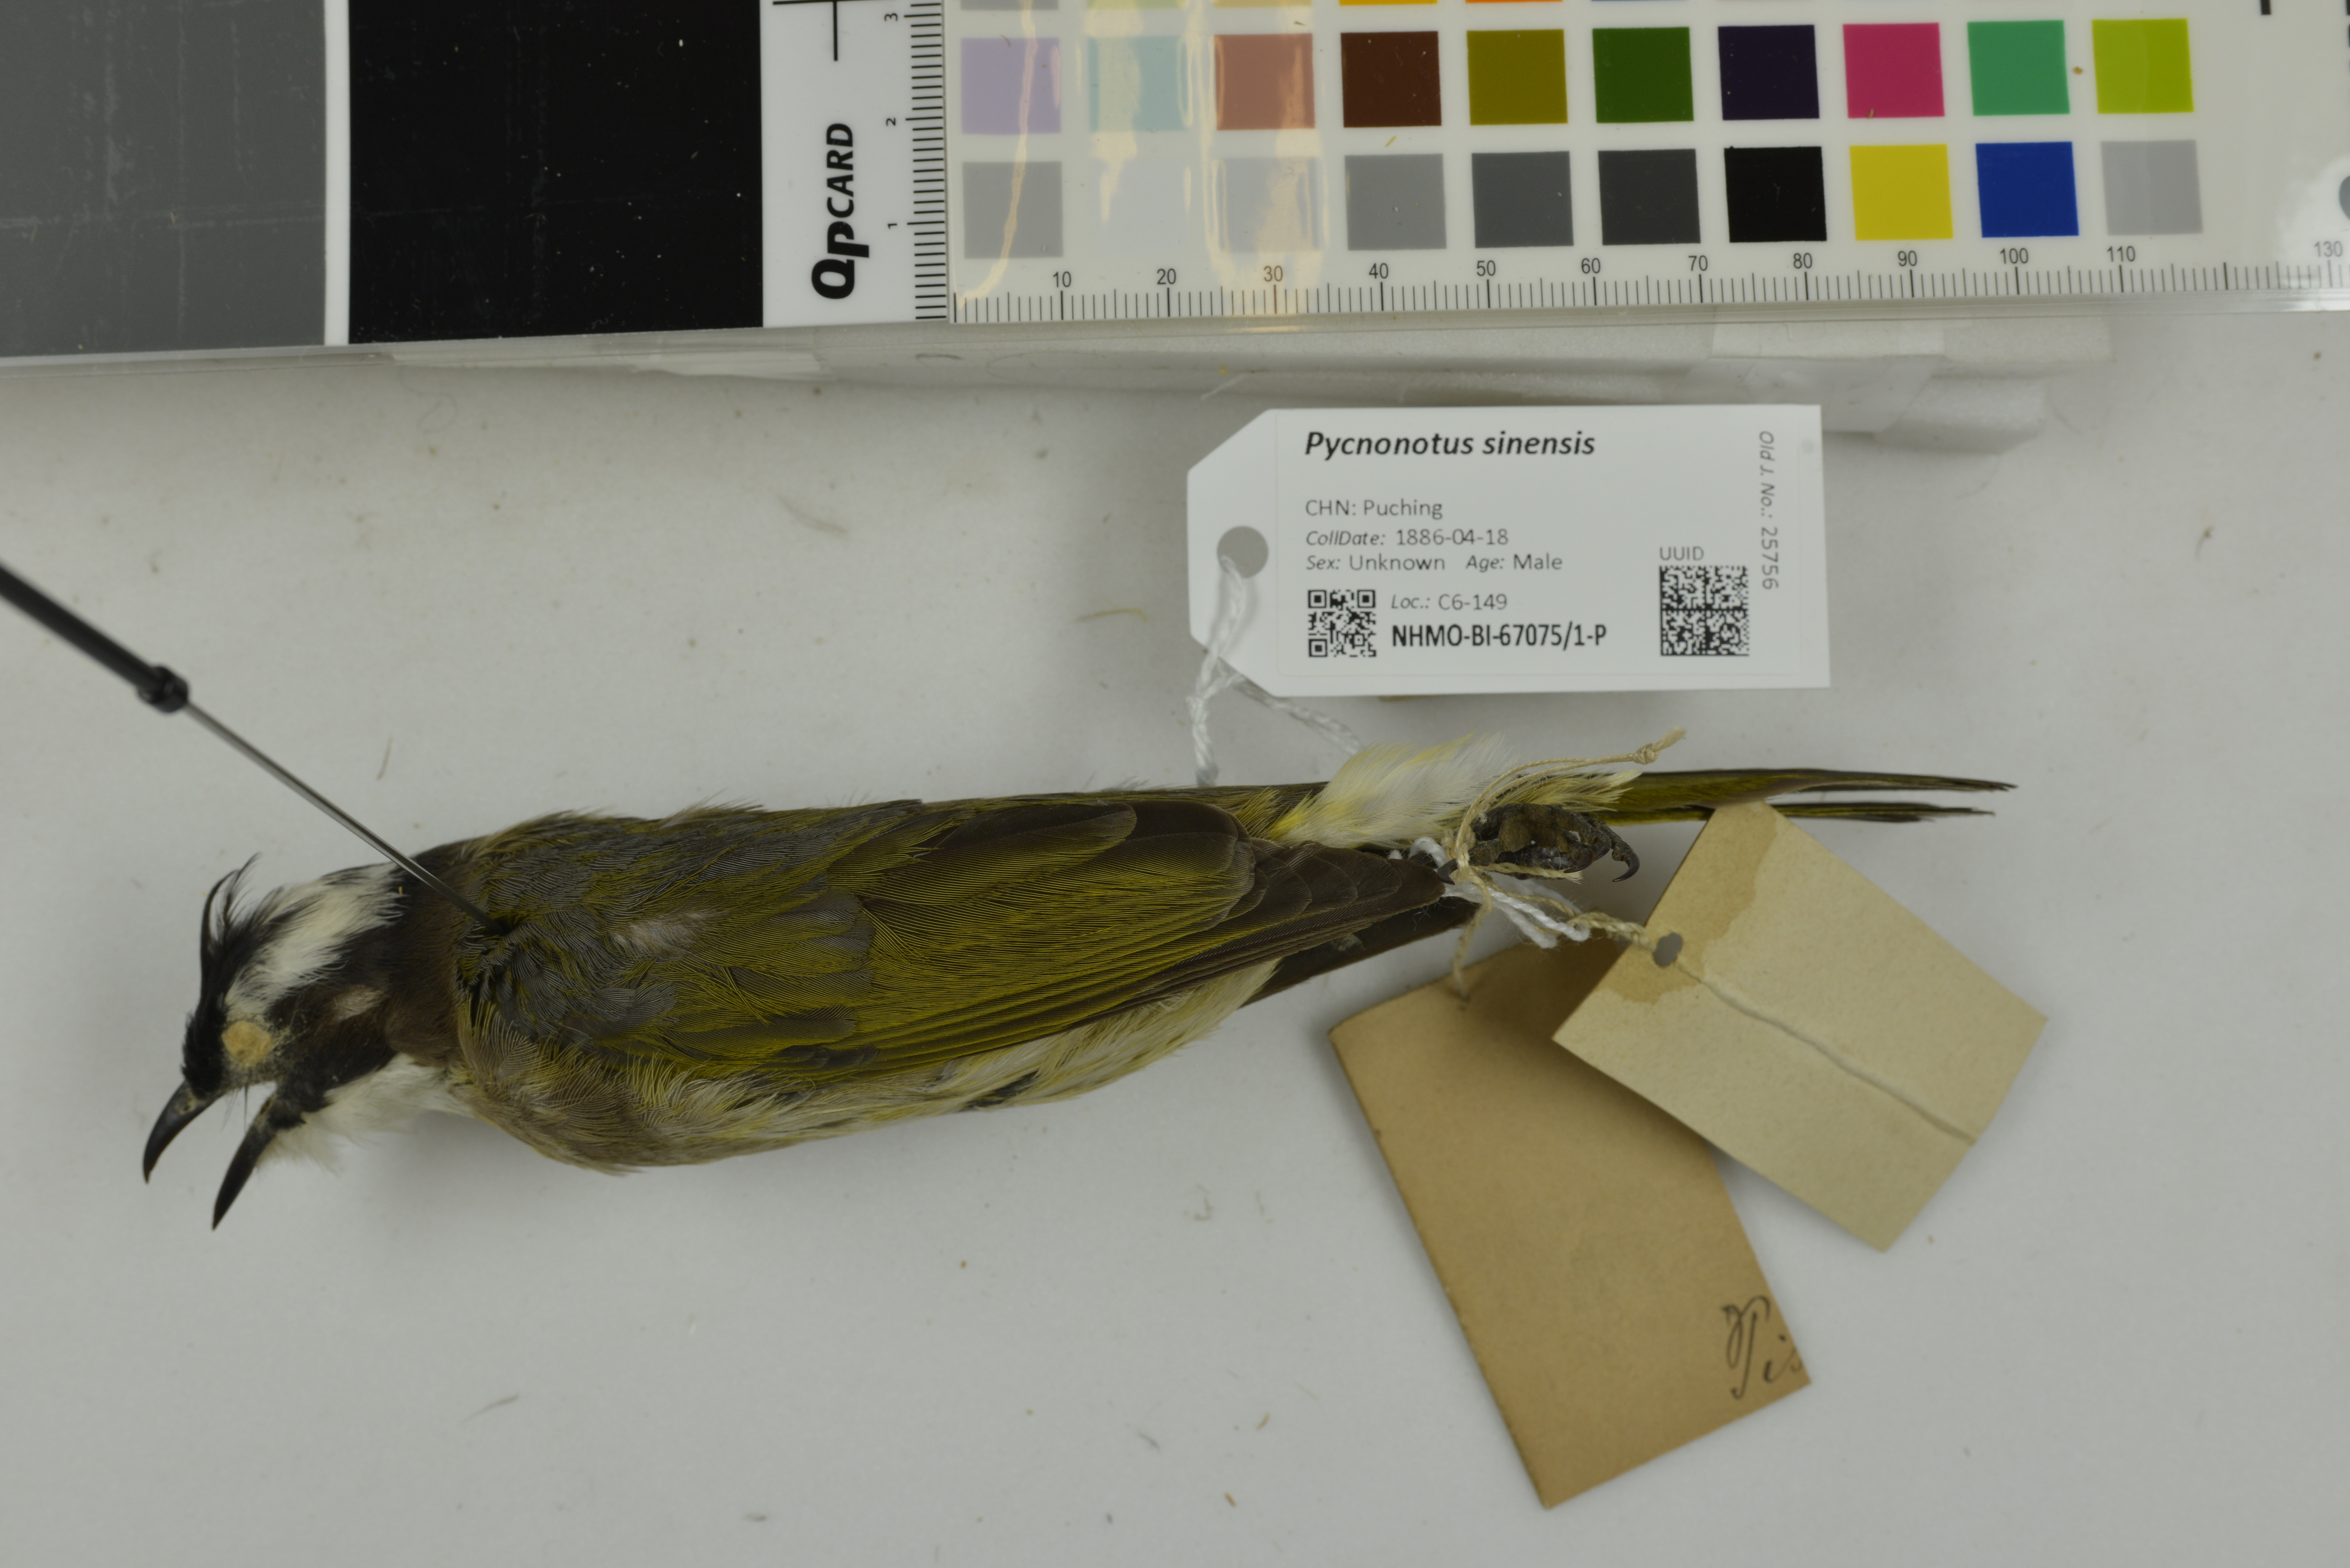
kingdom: Animalia
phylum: Chordata
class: Aves
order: Passeriformes
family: Pycnonotidae
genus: Pycnonotus
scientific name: Pycnonotus sinensis
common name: Light-vented bulbul
